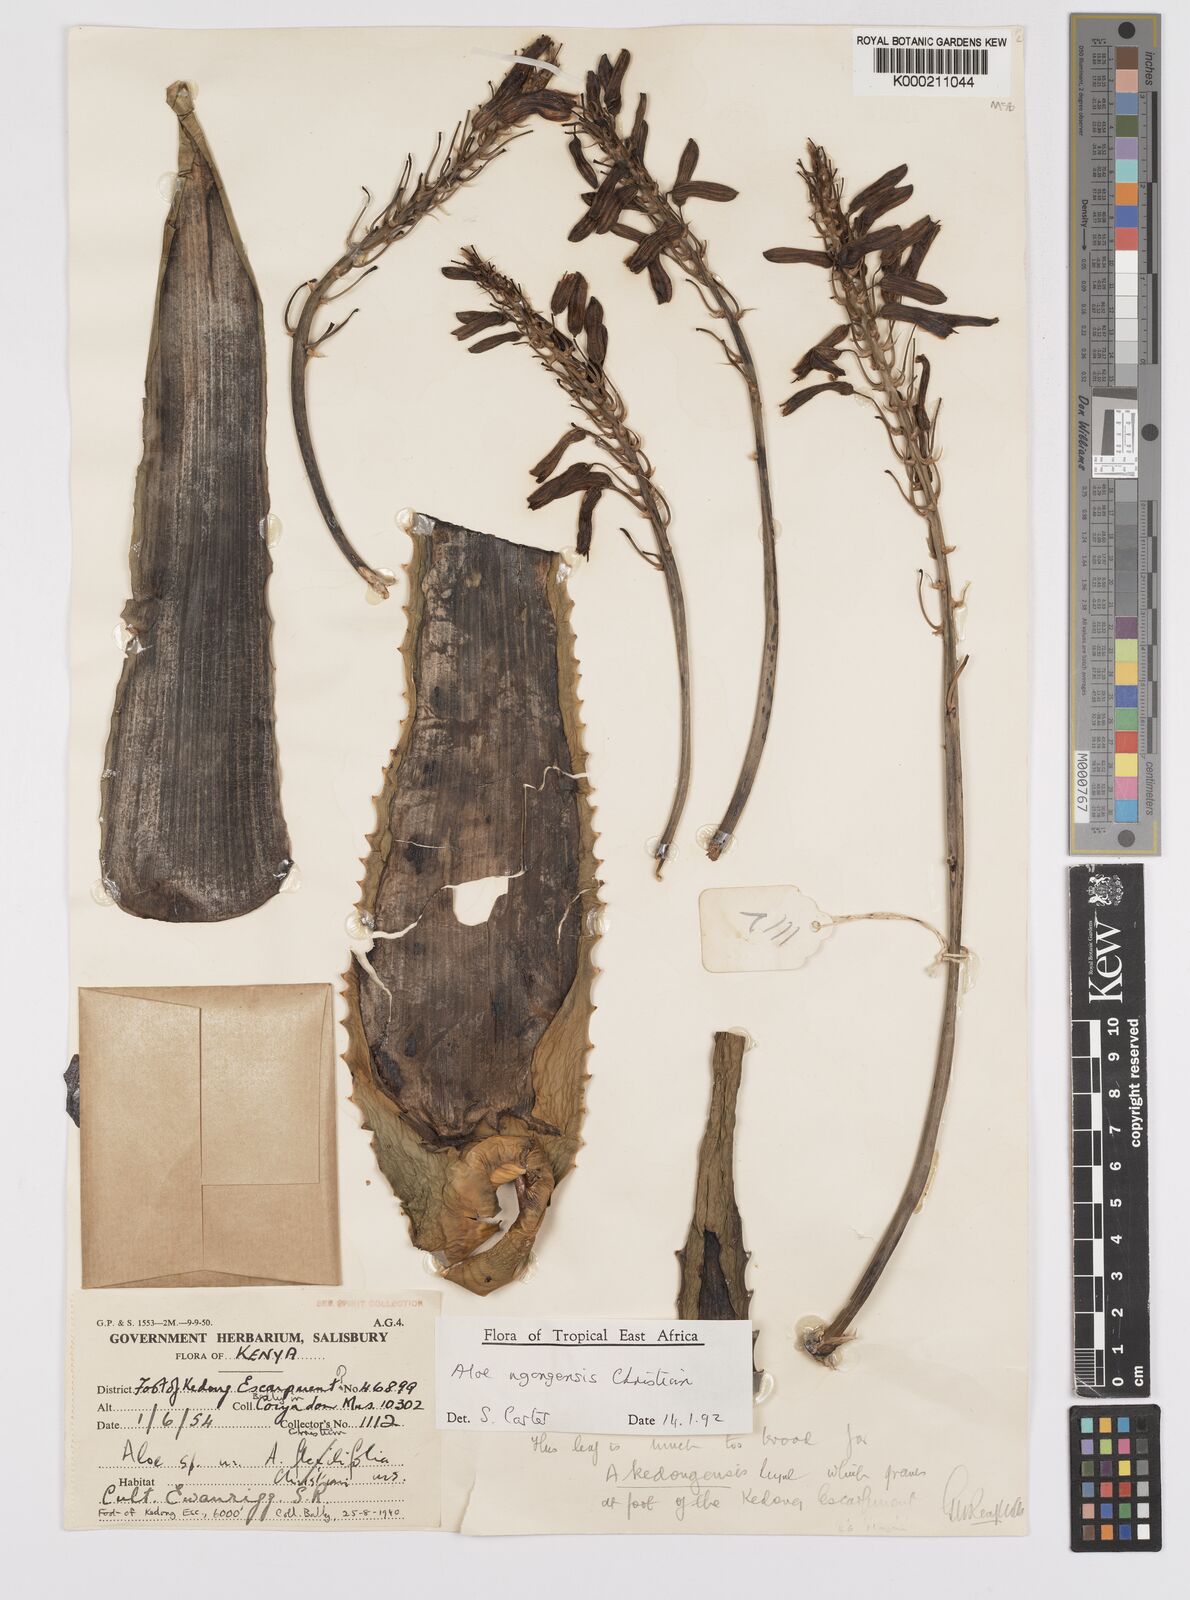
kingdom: Plantae
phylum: Tracheophyta
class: Liliopsida
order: Asparagales
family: Asphodelaceae
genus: Aloe
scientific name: Aloe ngongensis
